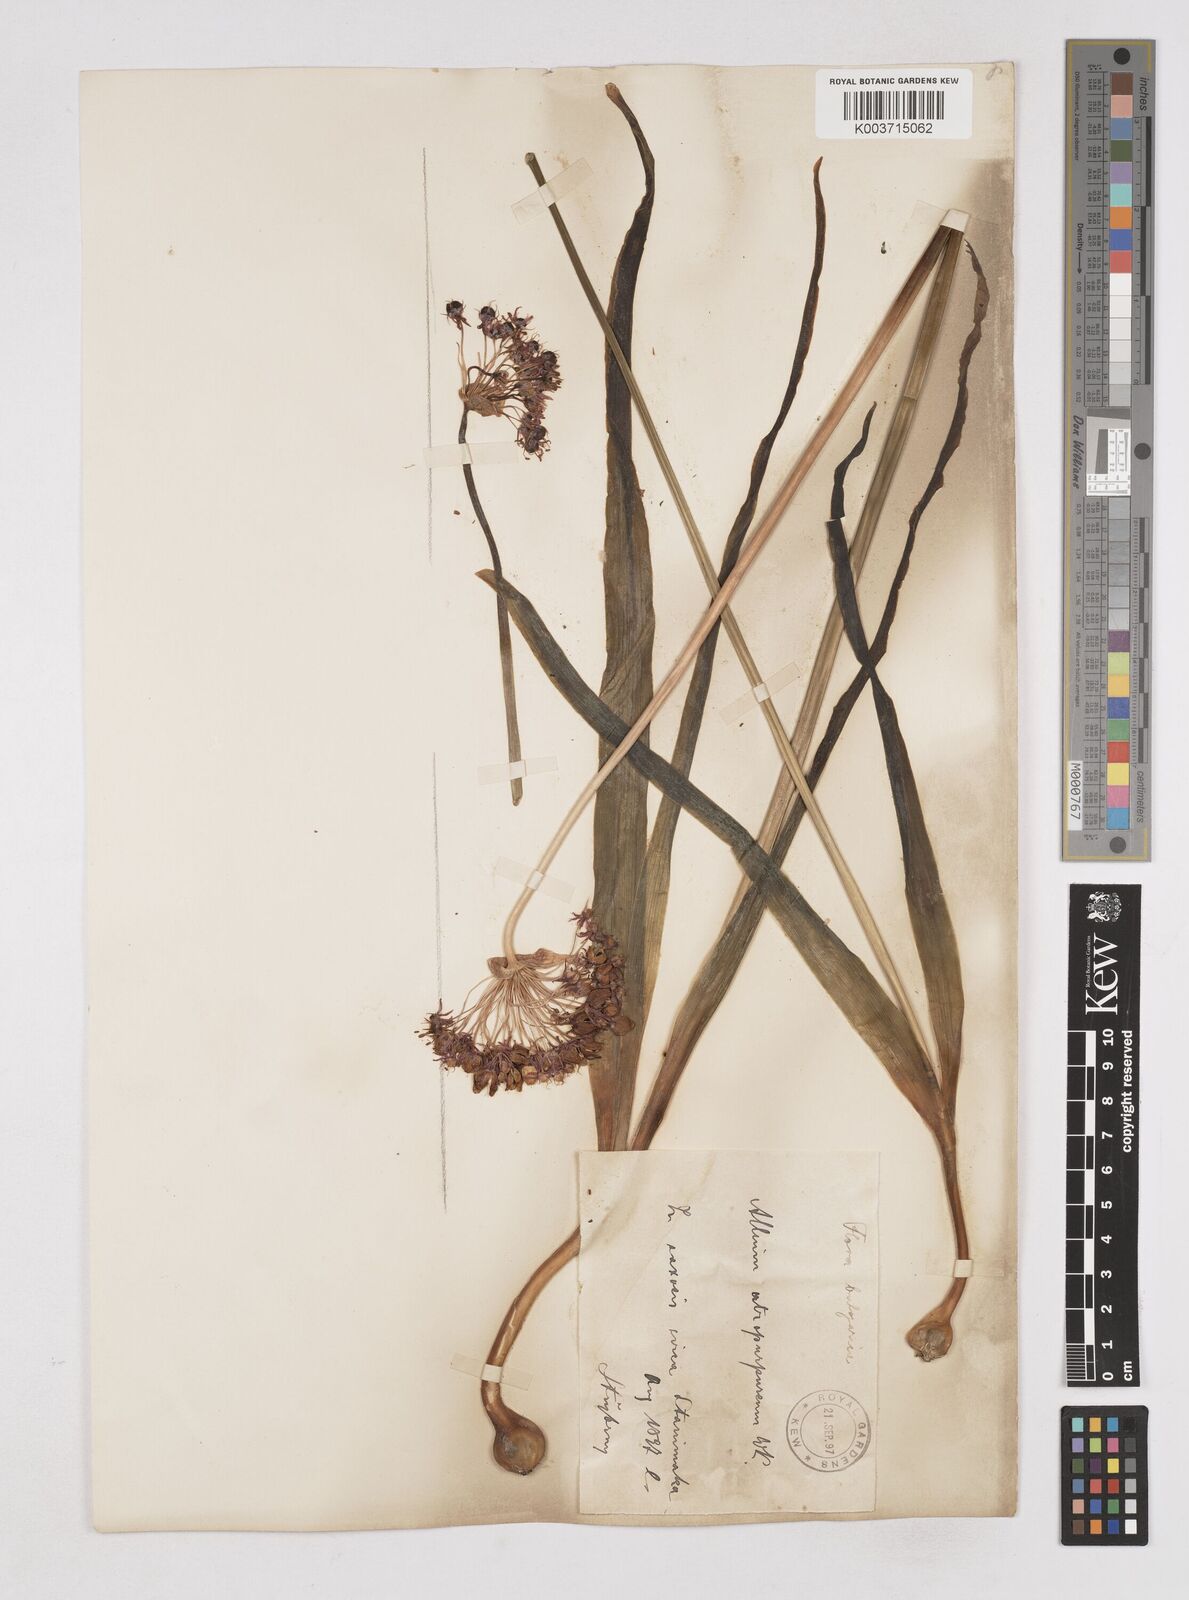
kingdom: Plantae
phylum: Tracheophyta
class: Liliopsida
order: Asparagales
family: Amaryllidaceae
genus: Allium
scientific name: Allium atropurpureum
